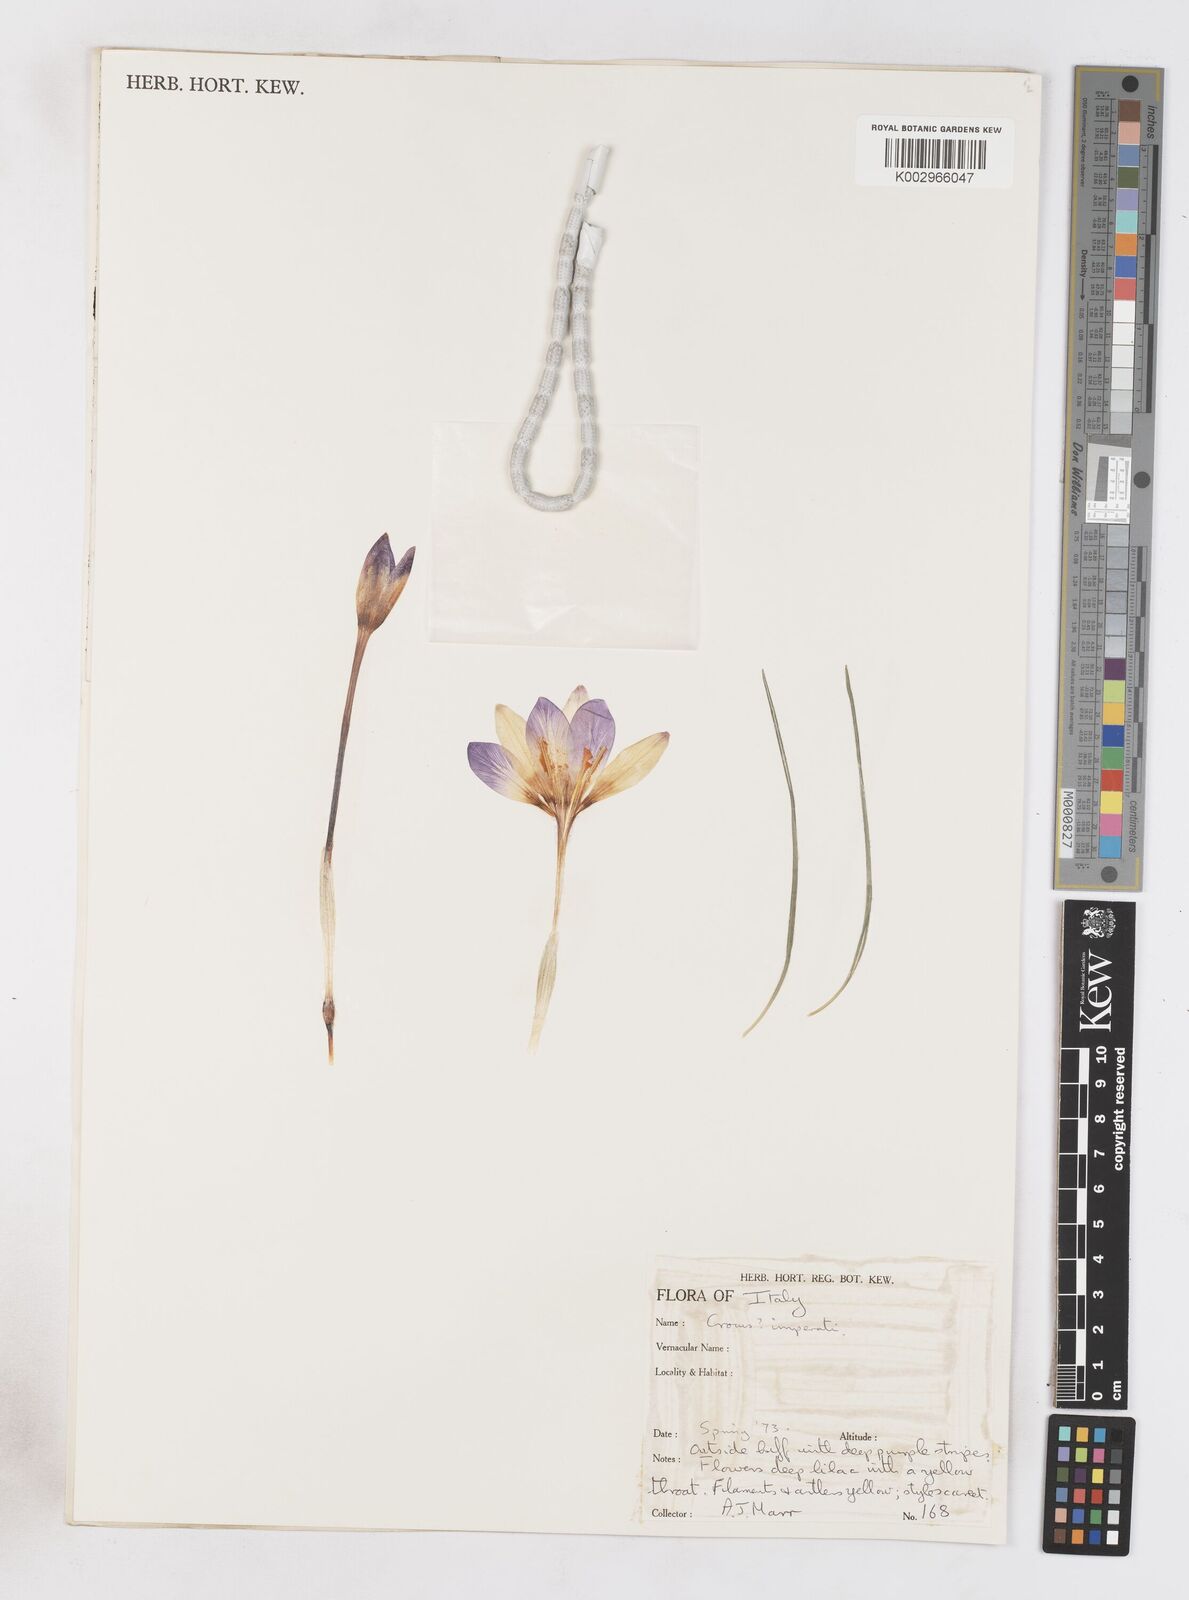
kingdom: Plantae
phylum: Tracheophyta
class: Liliopsida
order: Asparagales
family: Iridaceae
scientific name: Iridaceae
